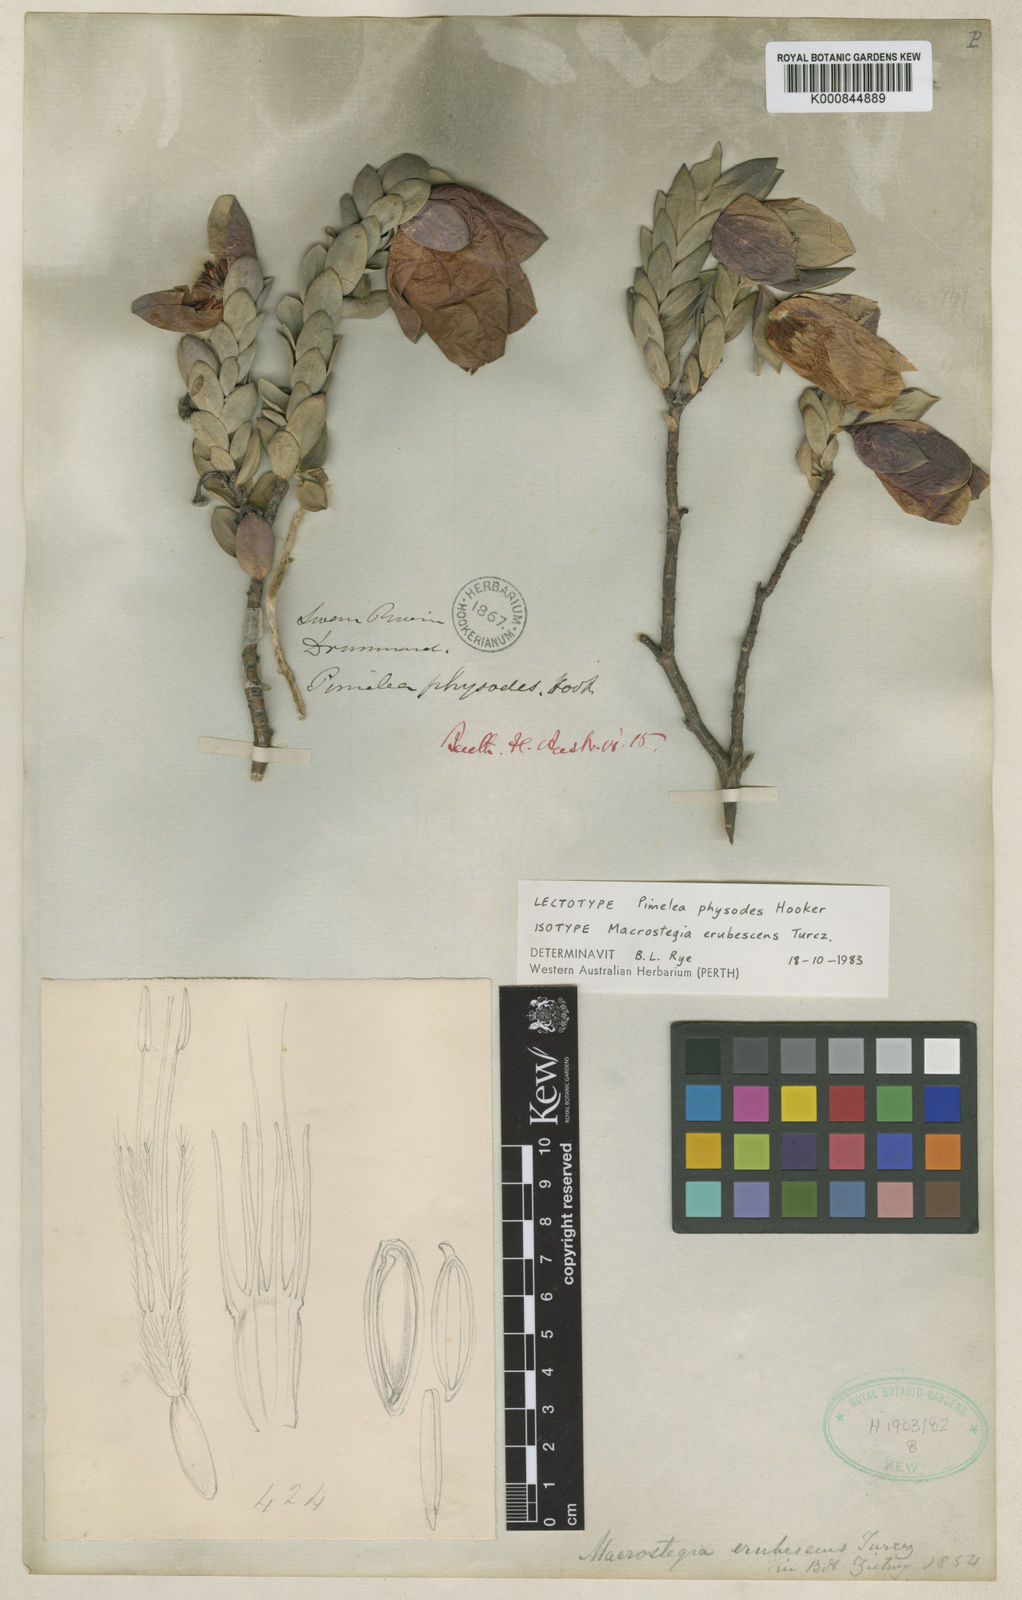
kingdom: Plantae
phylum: Tracheophyta
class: Magnoliopsida
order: Malvales
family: Thymelaeaceae
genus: Pimelea
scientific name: Pimelea physodes
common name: Qualup-bell
